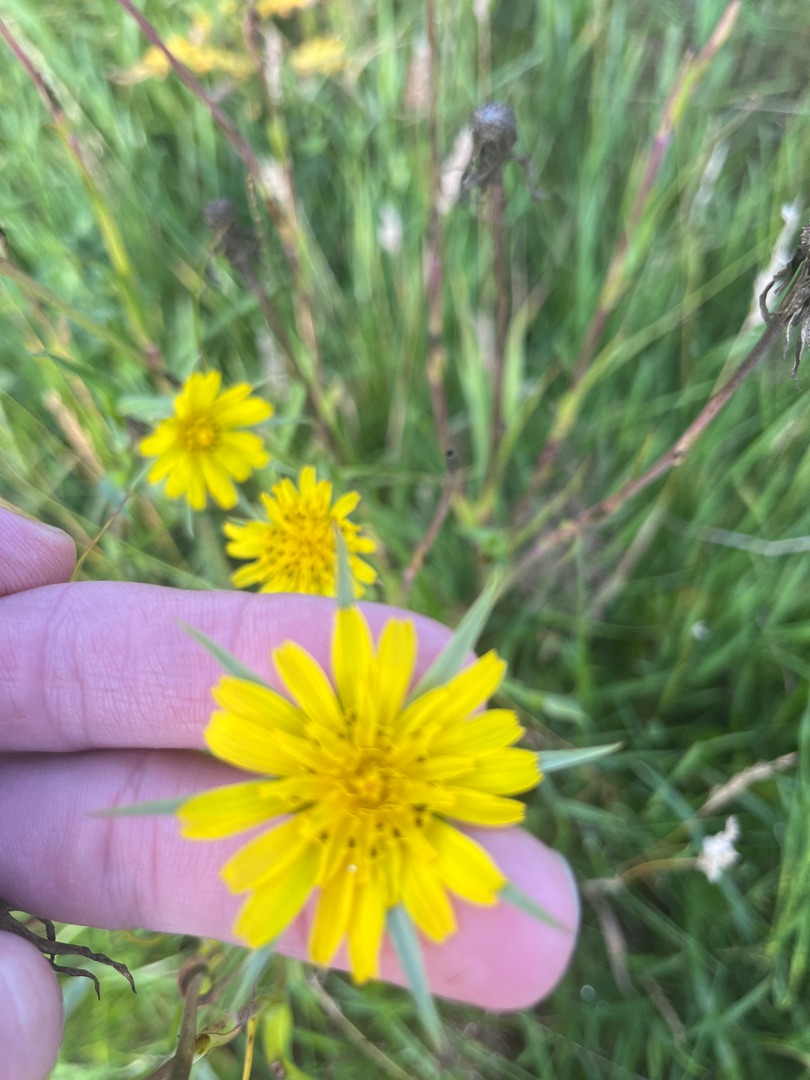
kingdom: Plantae
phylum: Tracheophyta
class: Magnoliopsida
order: Asterales
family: Asteraceae
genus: Tragopogon
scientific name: Tragopogon minor
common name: Småkronet gedeskæg
